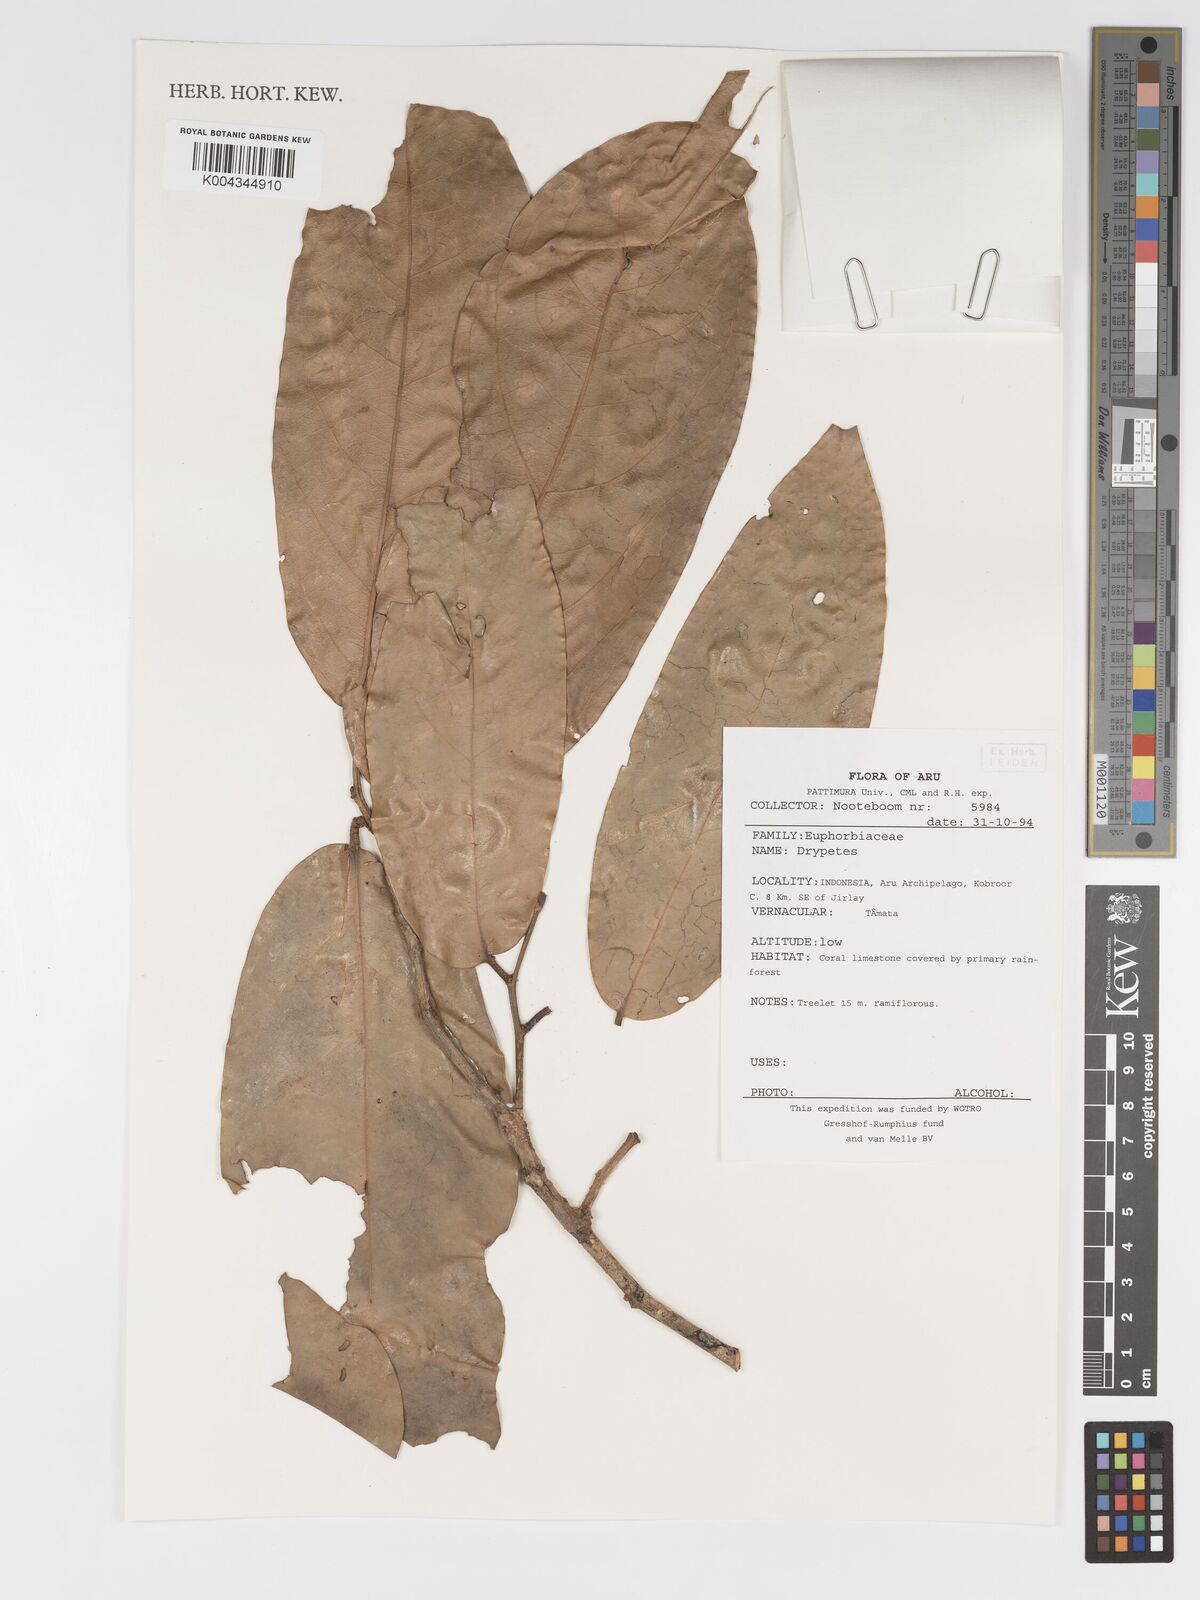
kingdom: Plantae
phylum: Tracheophyta
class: Magnoliopsida
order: Malpighiales
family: Putranjivaceae
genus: Drypetes
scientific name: Drypetes
